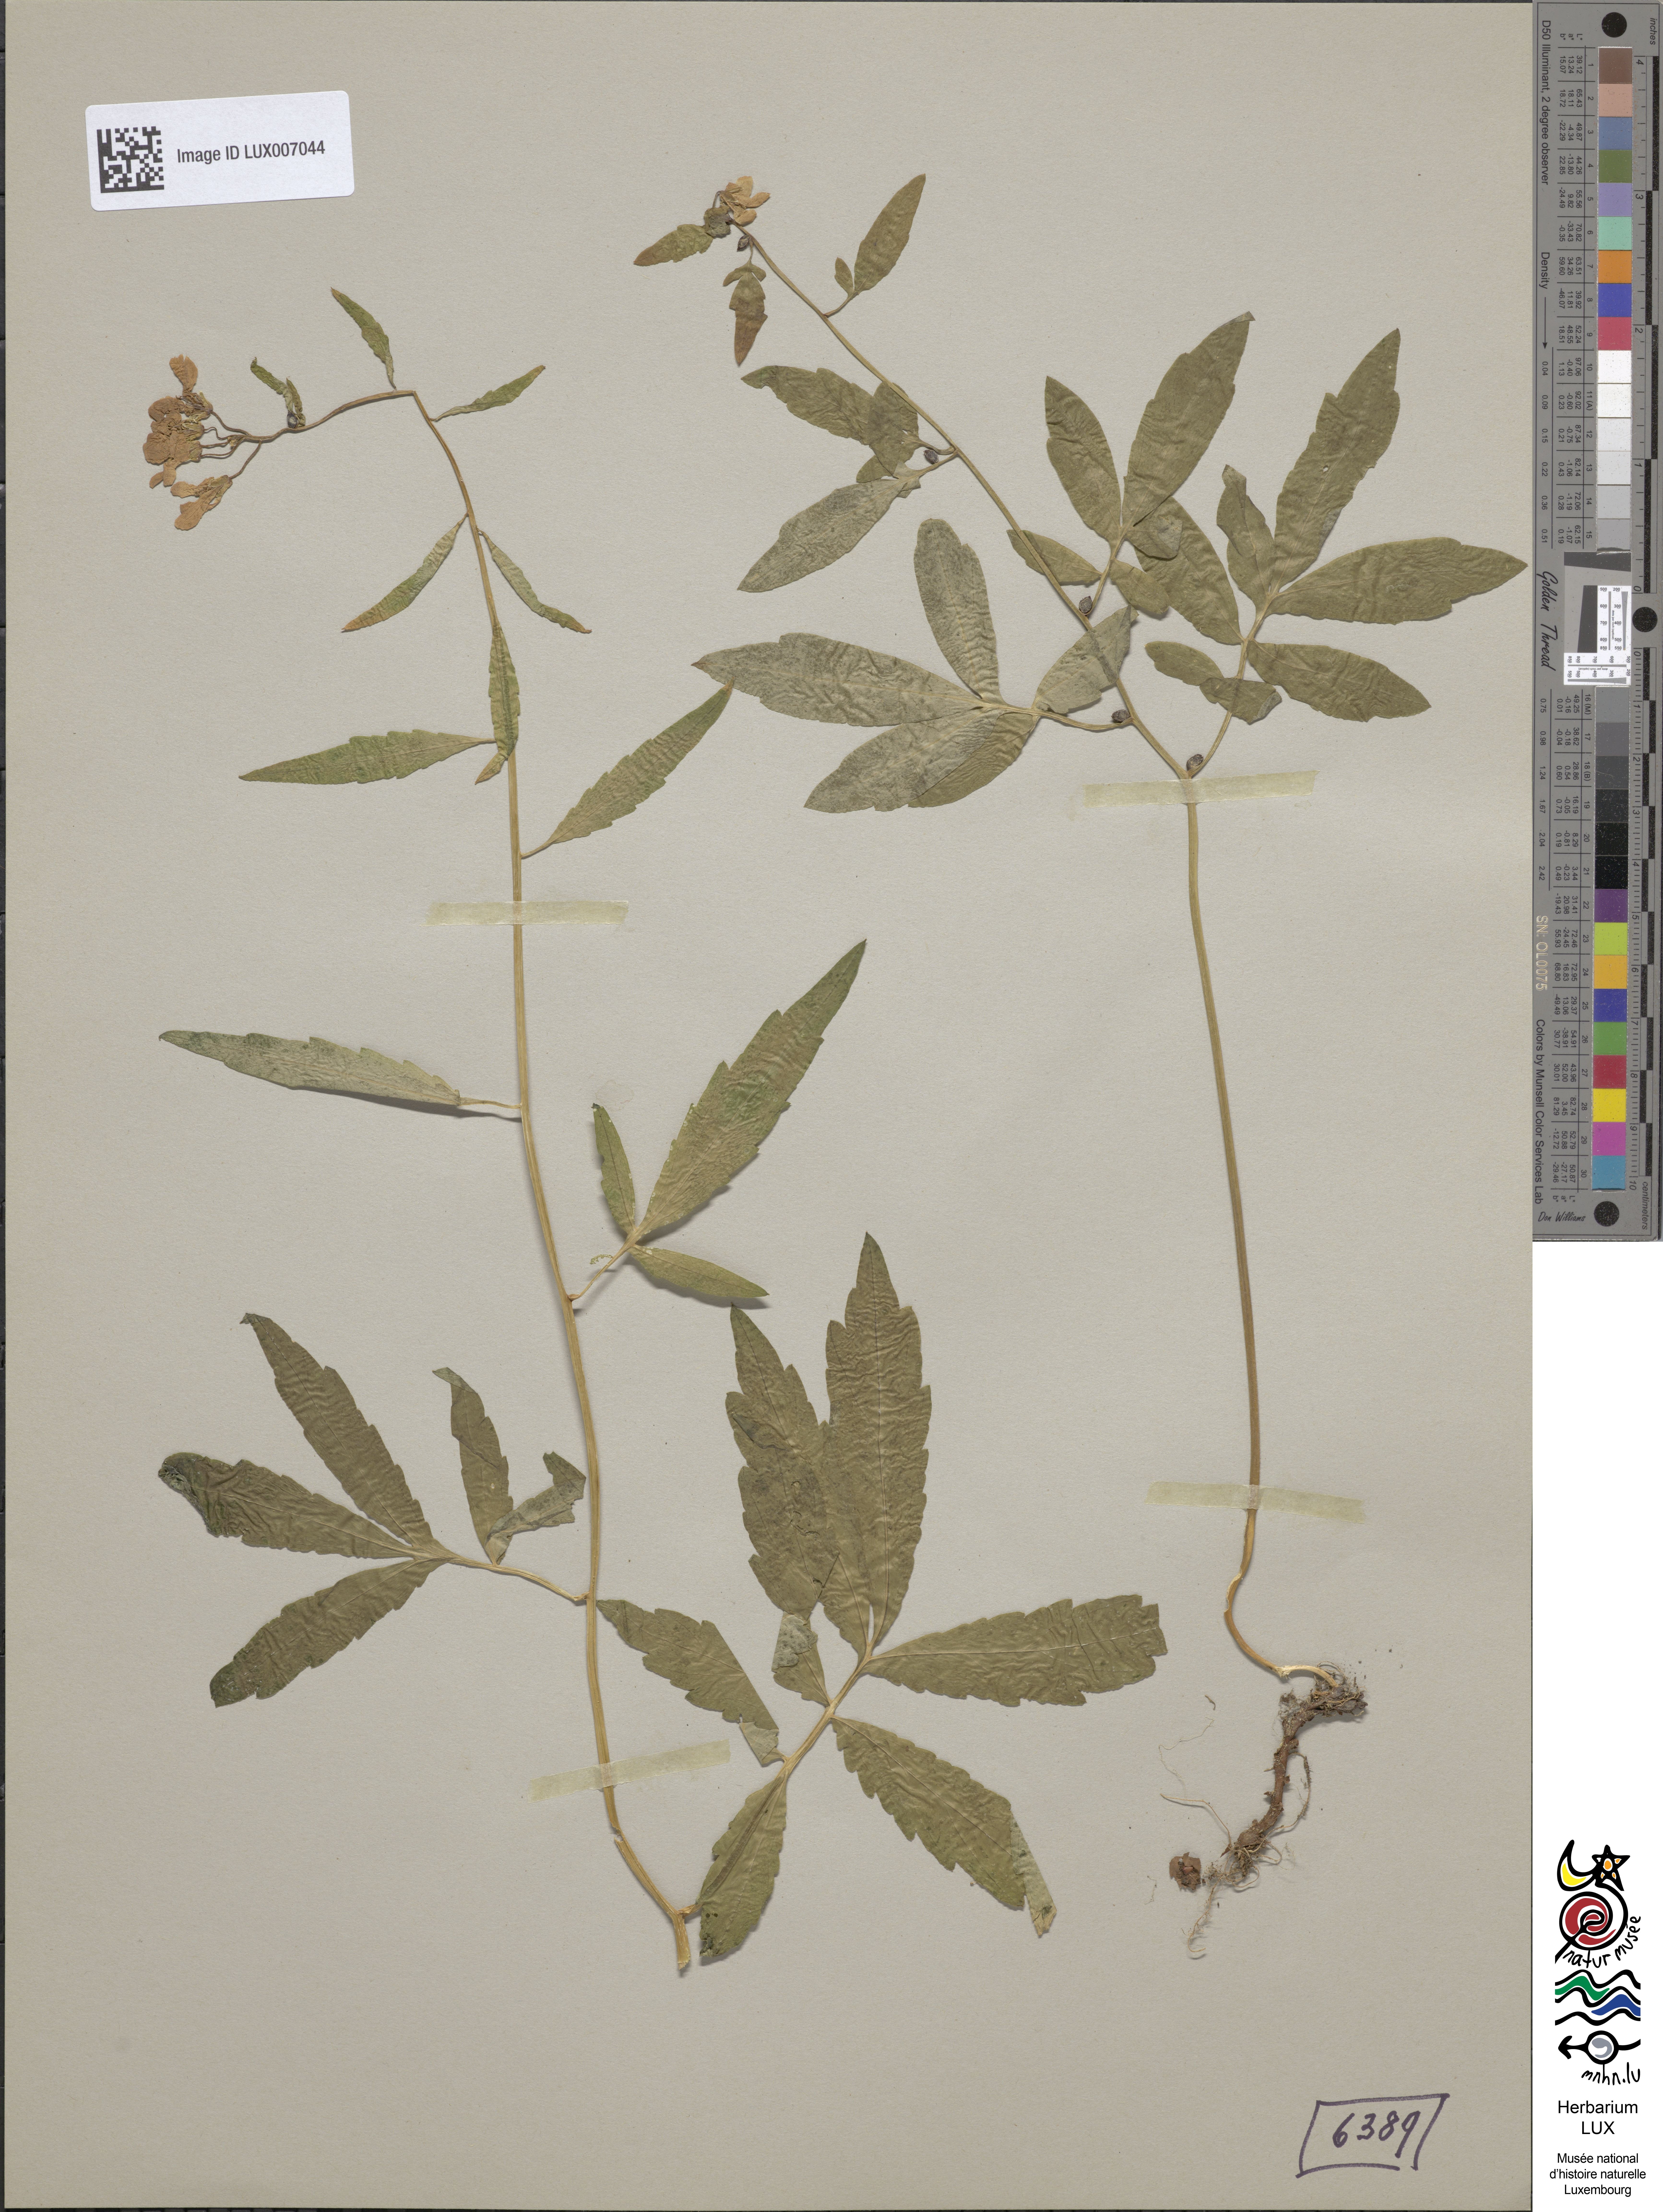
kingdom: Plantae
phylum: Tracheophyta
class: Magnoliopsida
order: Brassicales
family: Brassicaceae
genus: Cardamine
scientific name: Cardamine bulbifera
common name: Coralroot bittercress
